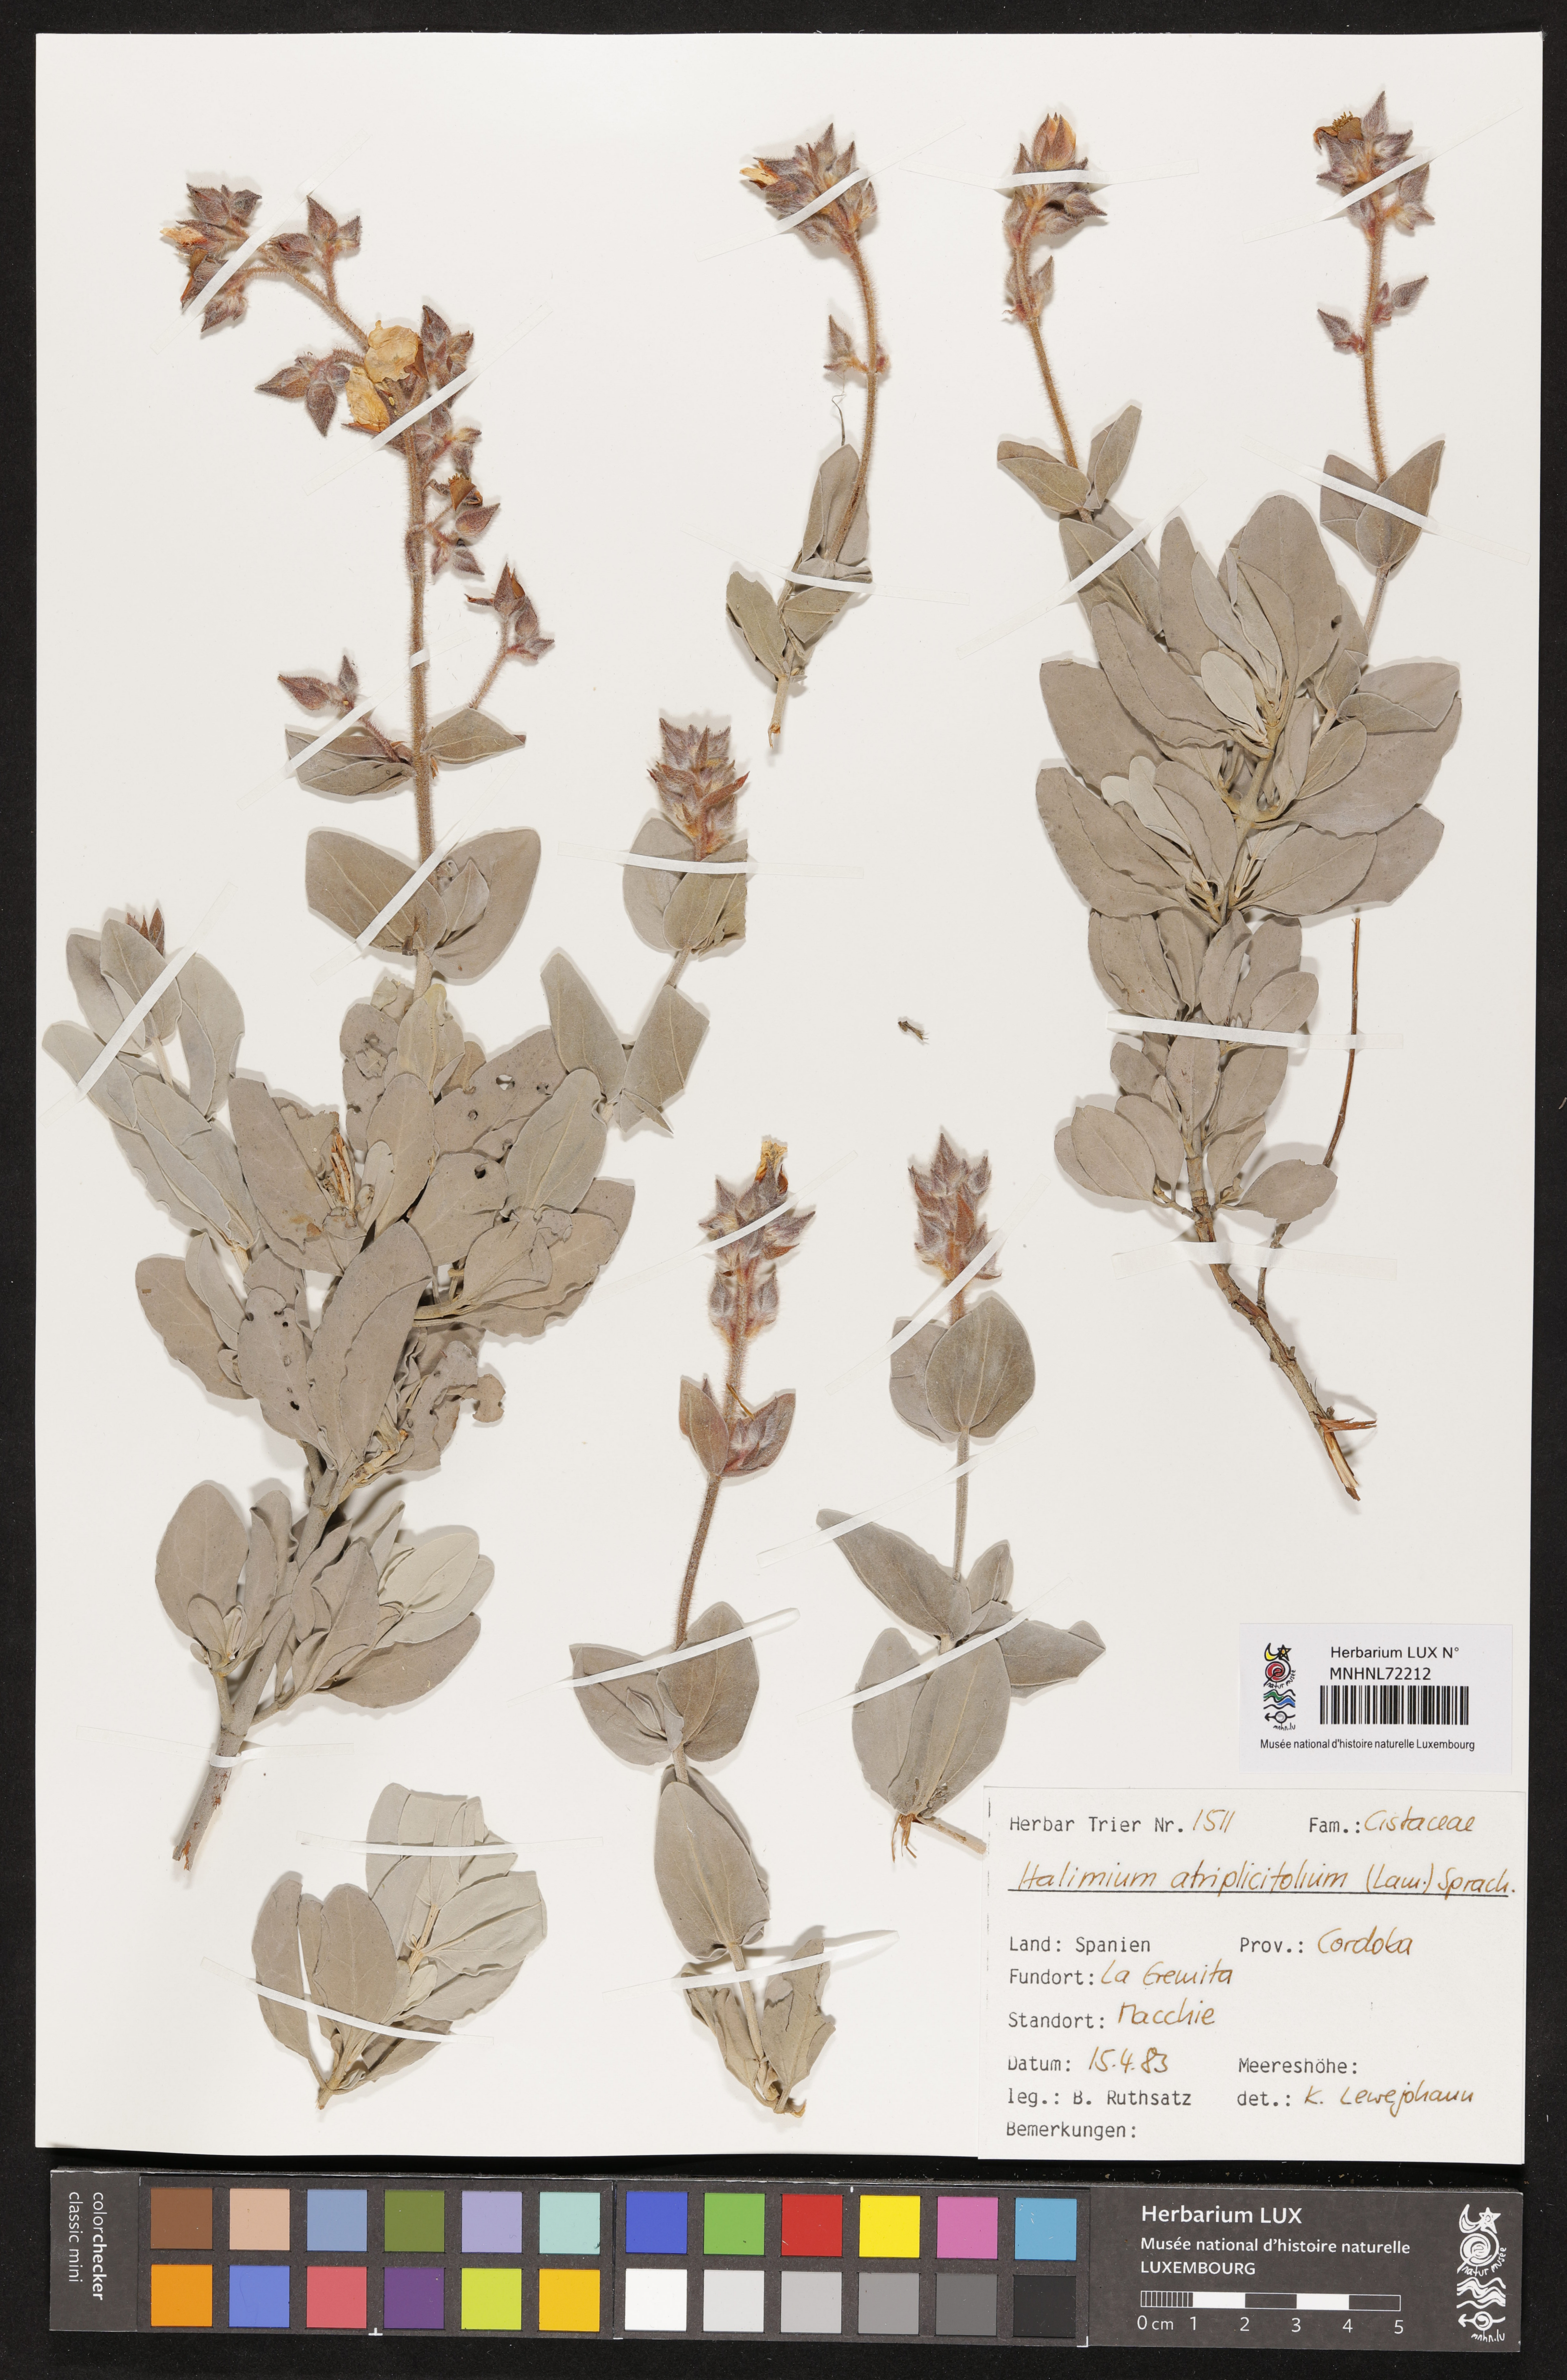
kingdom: Plantae
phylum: Tracheophyta
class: Magnoliopsida
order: Malvales
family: Cistaceae
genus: Halimium
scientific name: Halimium atriplicifolium
